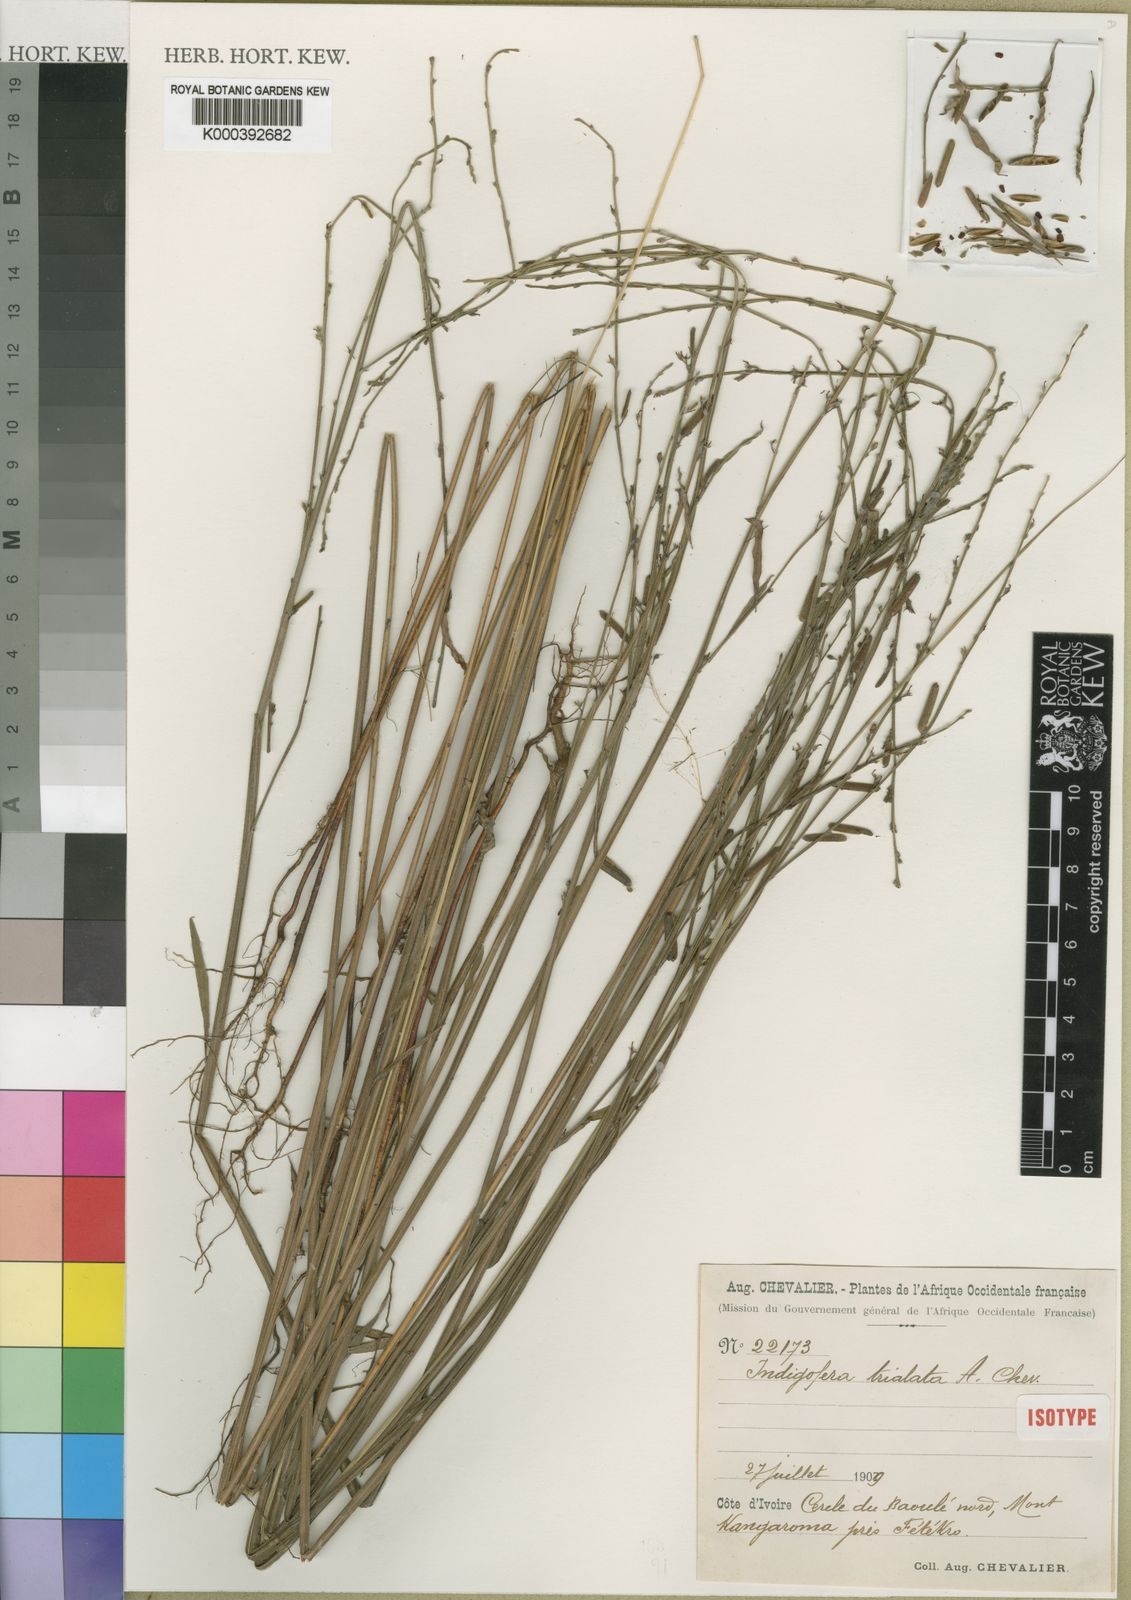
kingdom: Plantae
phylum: Tracheophyta
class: Magnoliopsida
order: Fabales
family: Fabaceae
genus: Indigofera
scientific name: Indigofera trialata
